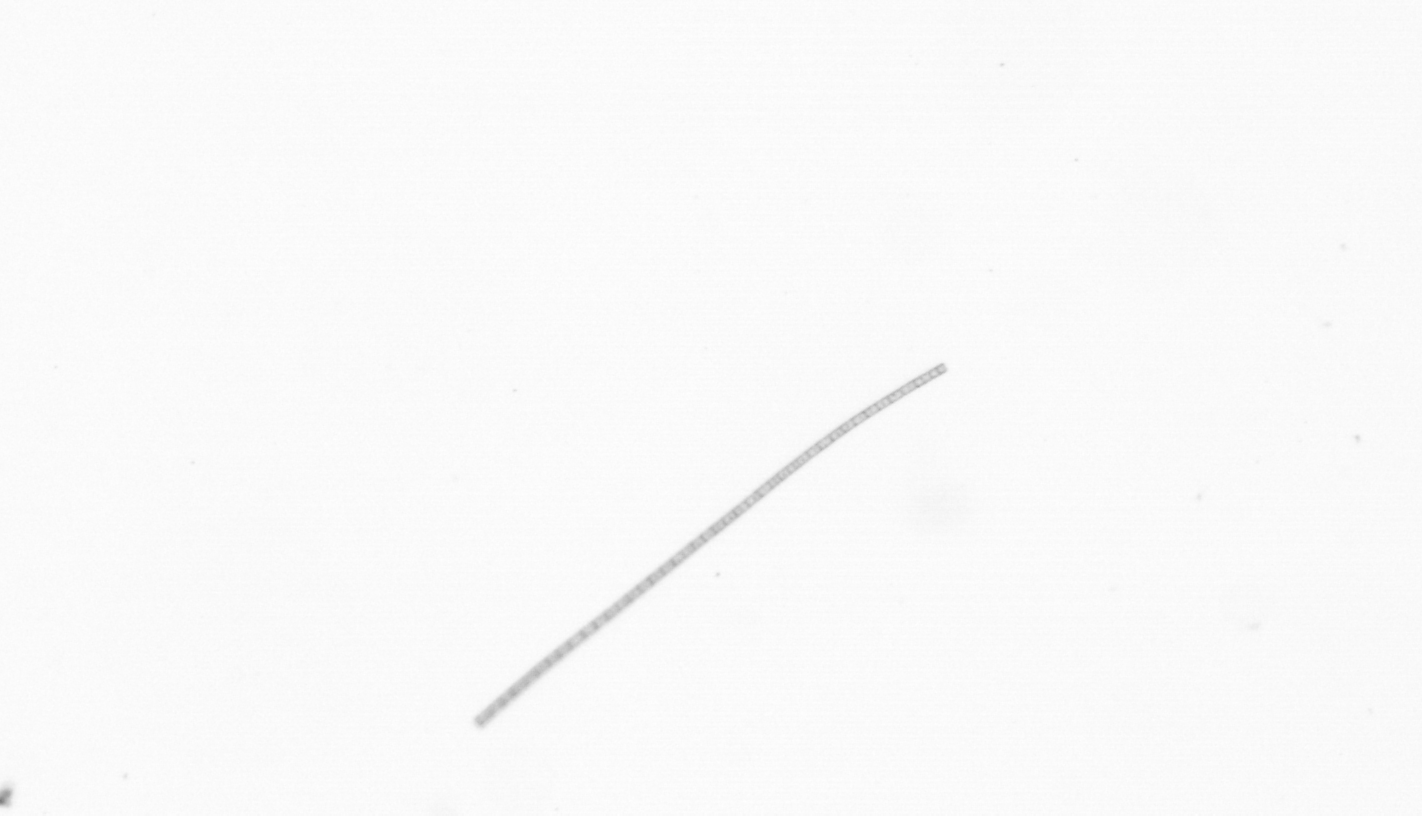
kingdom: Chromista
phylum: Ochrophyta
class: Bacillariophyceae
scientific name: Bacillariophyceae
